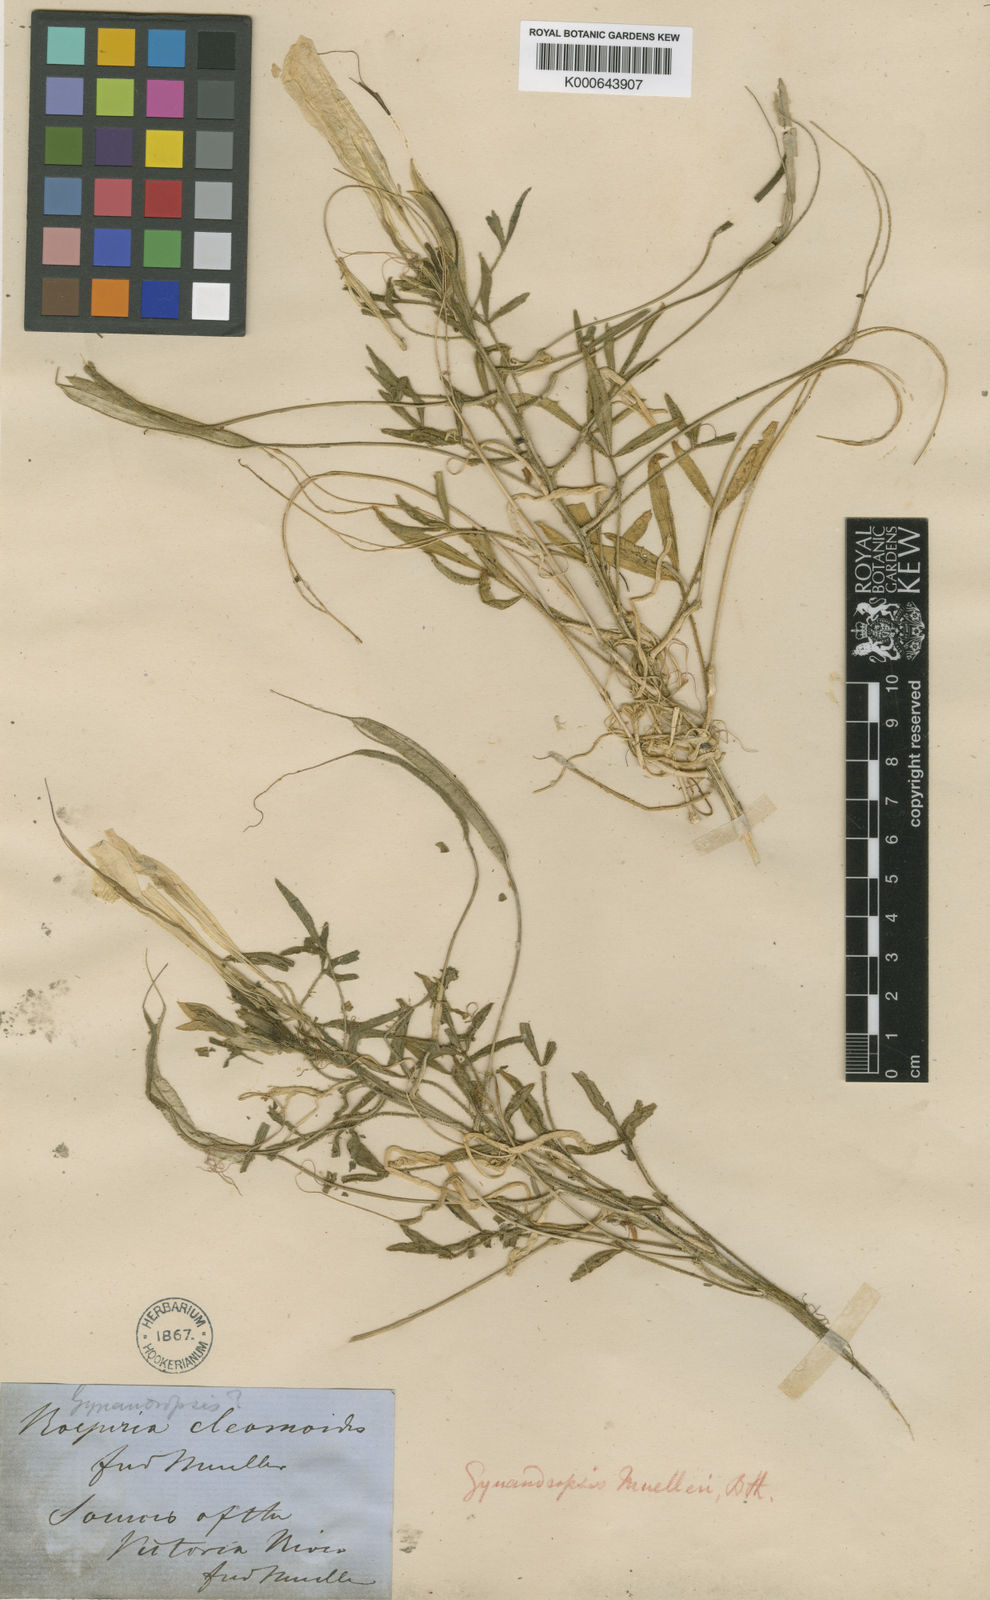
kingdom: Plantae
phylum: Tracheophyta
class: Magnoliopsida
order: Brassicales
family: Cleomaceae
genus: Arivela
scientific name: Arivela cleomoides
